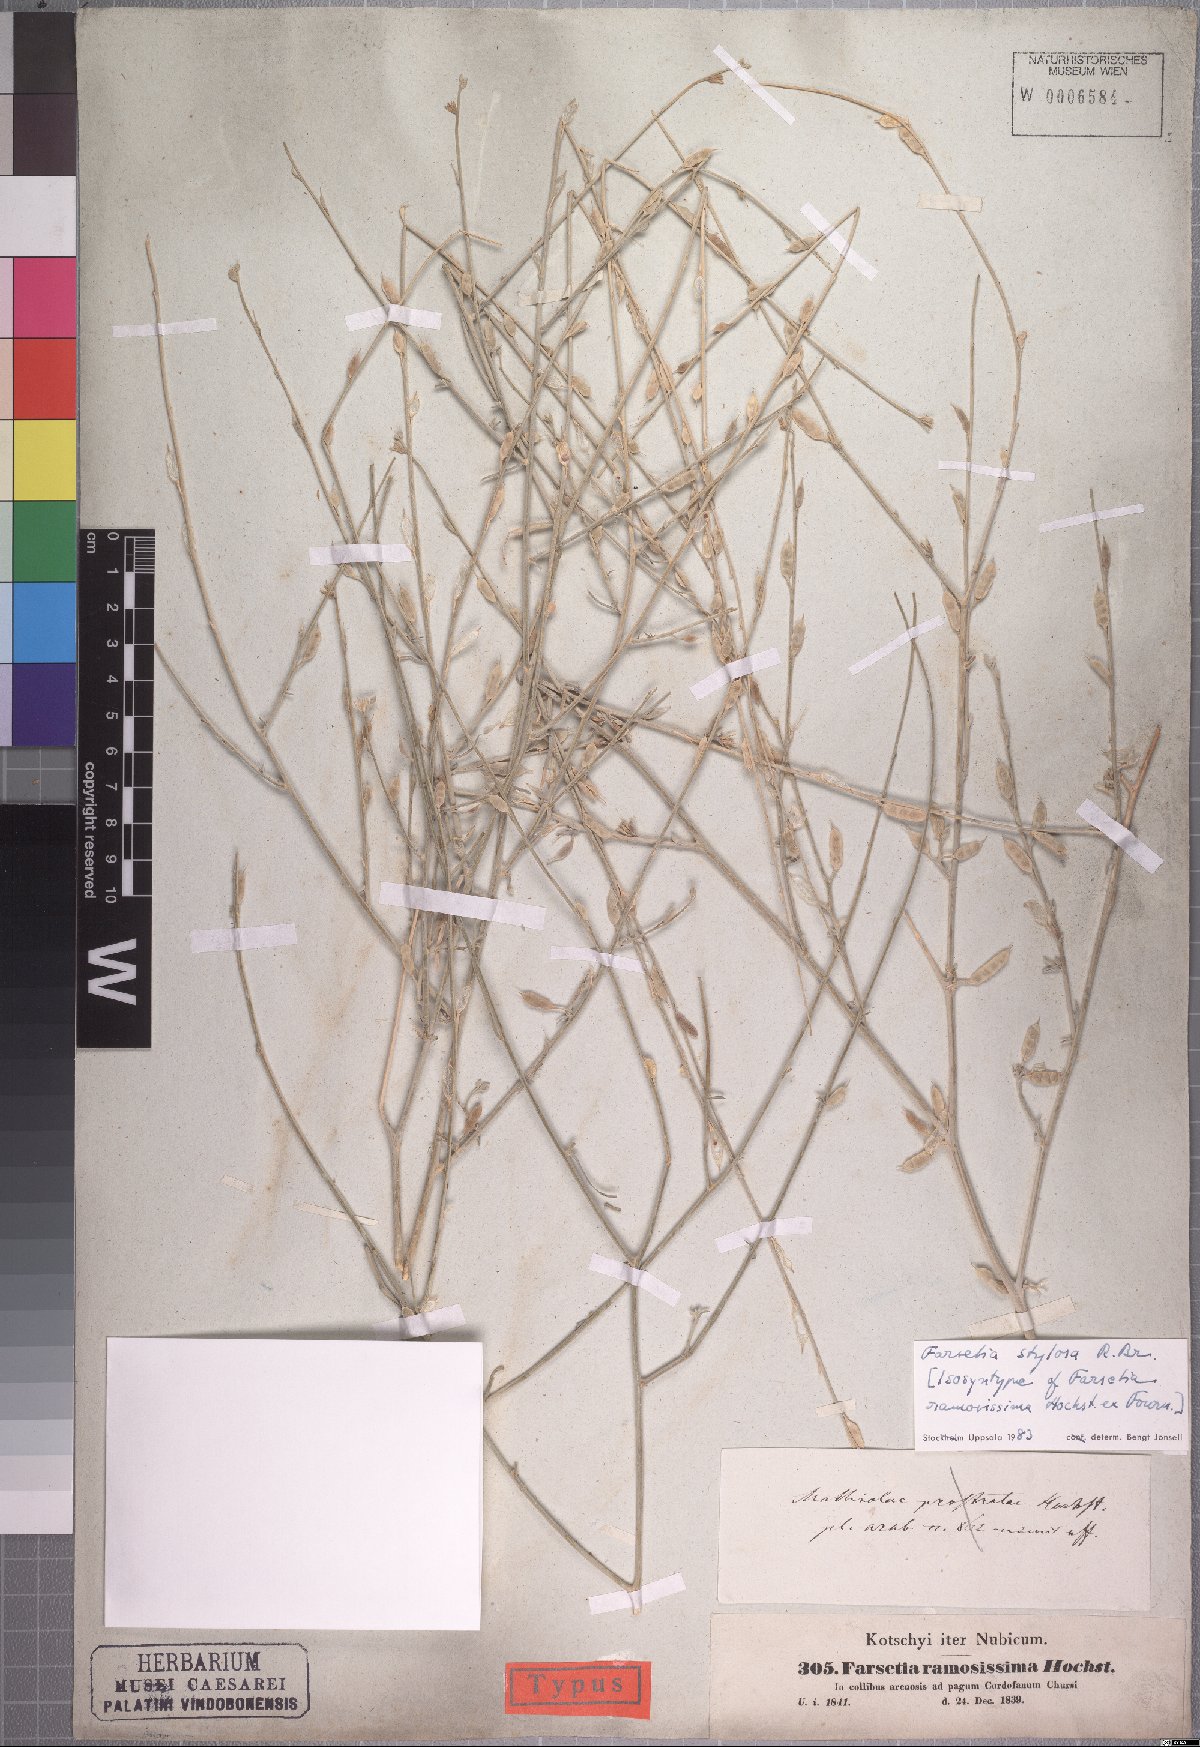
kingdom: Plantae
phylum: Tracheophyta
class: Magnoliopsida
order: Brassicales
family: Brassicaceae
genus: Farsetia
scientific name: Farsetia stylosa
